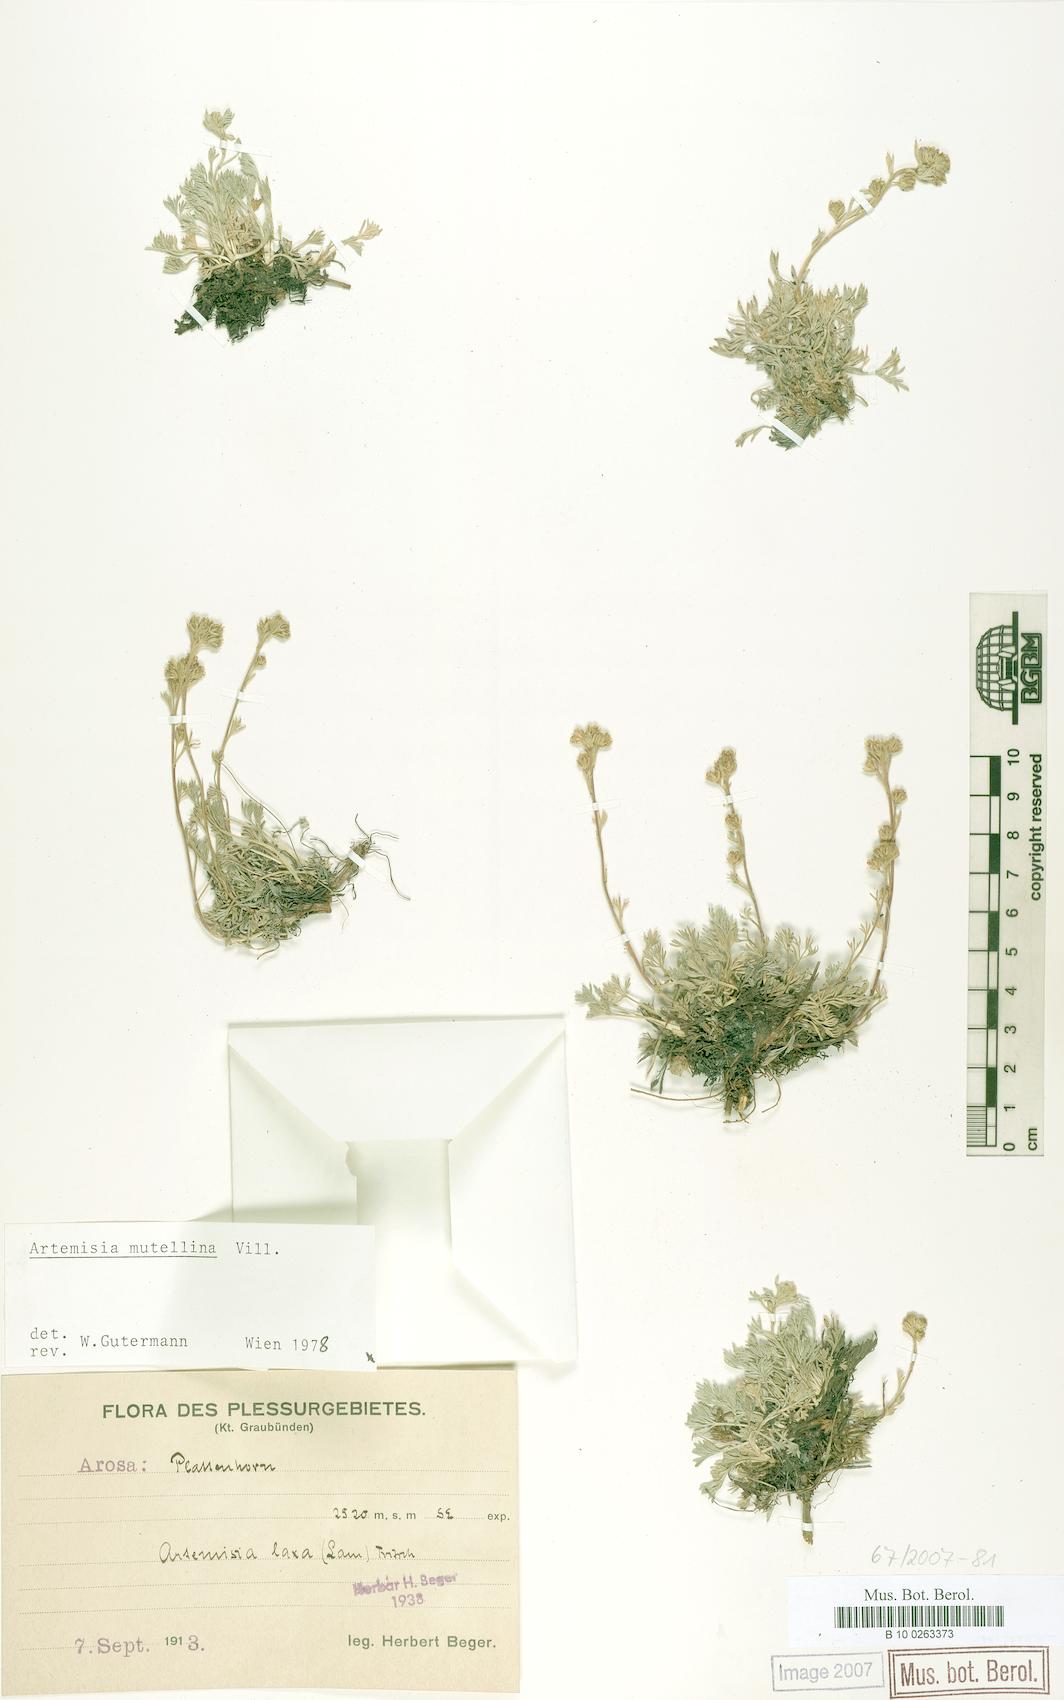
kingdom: Plantae
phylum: Tracheophyta
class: Magnoliopsida
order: Asterales
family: Asteraceae
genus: Artemisia
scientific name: Artemisia mutellina
